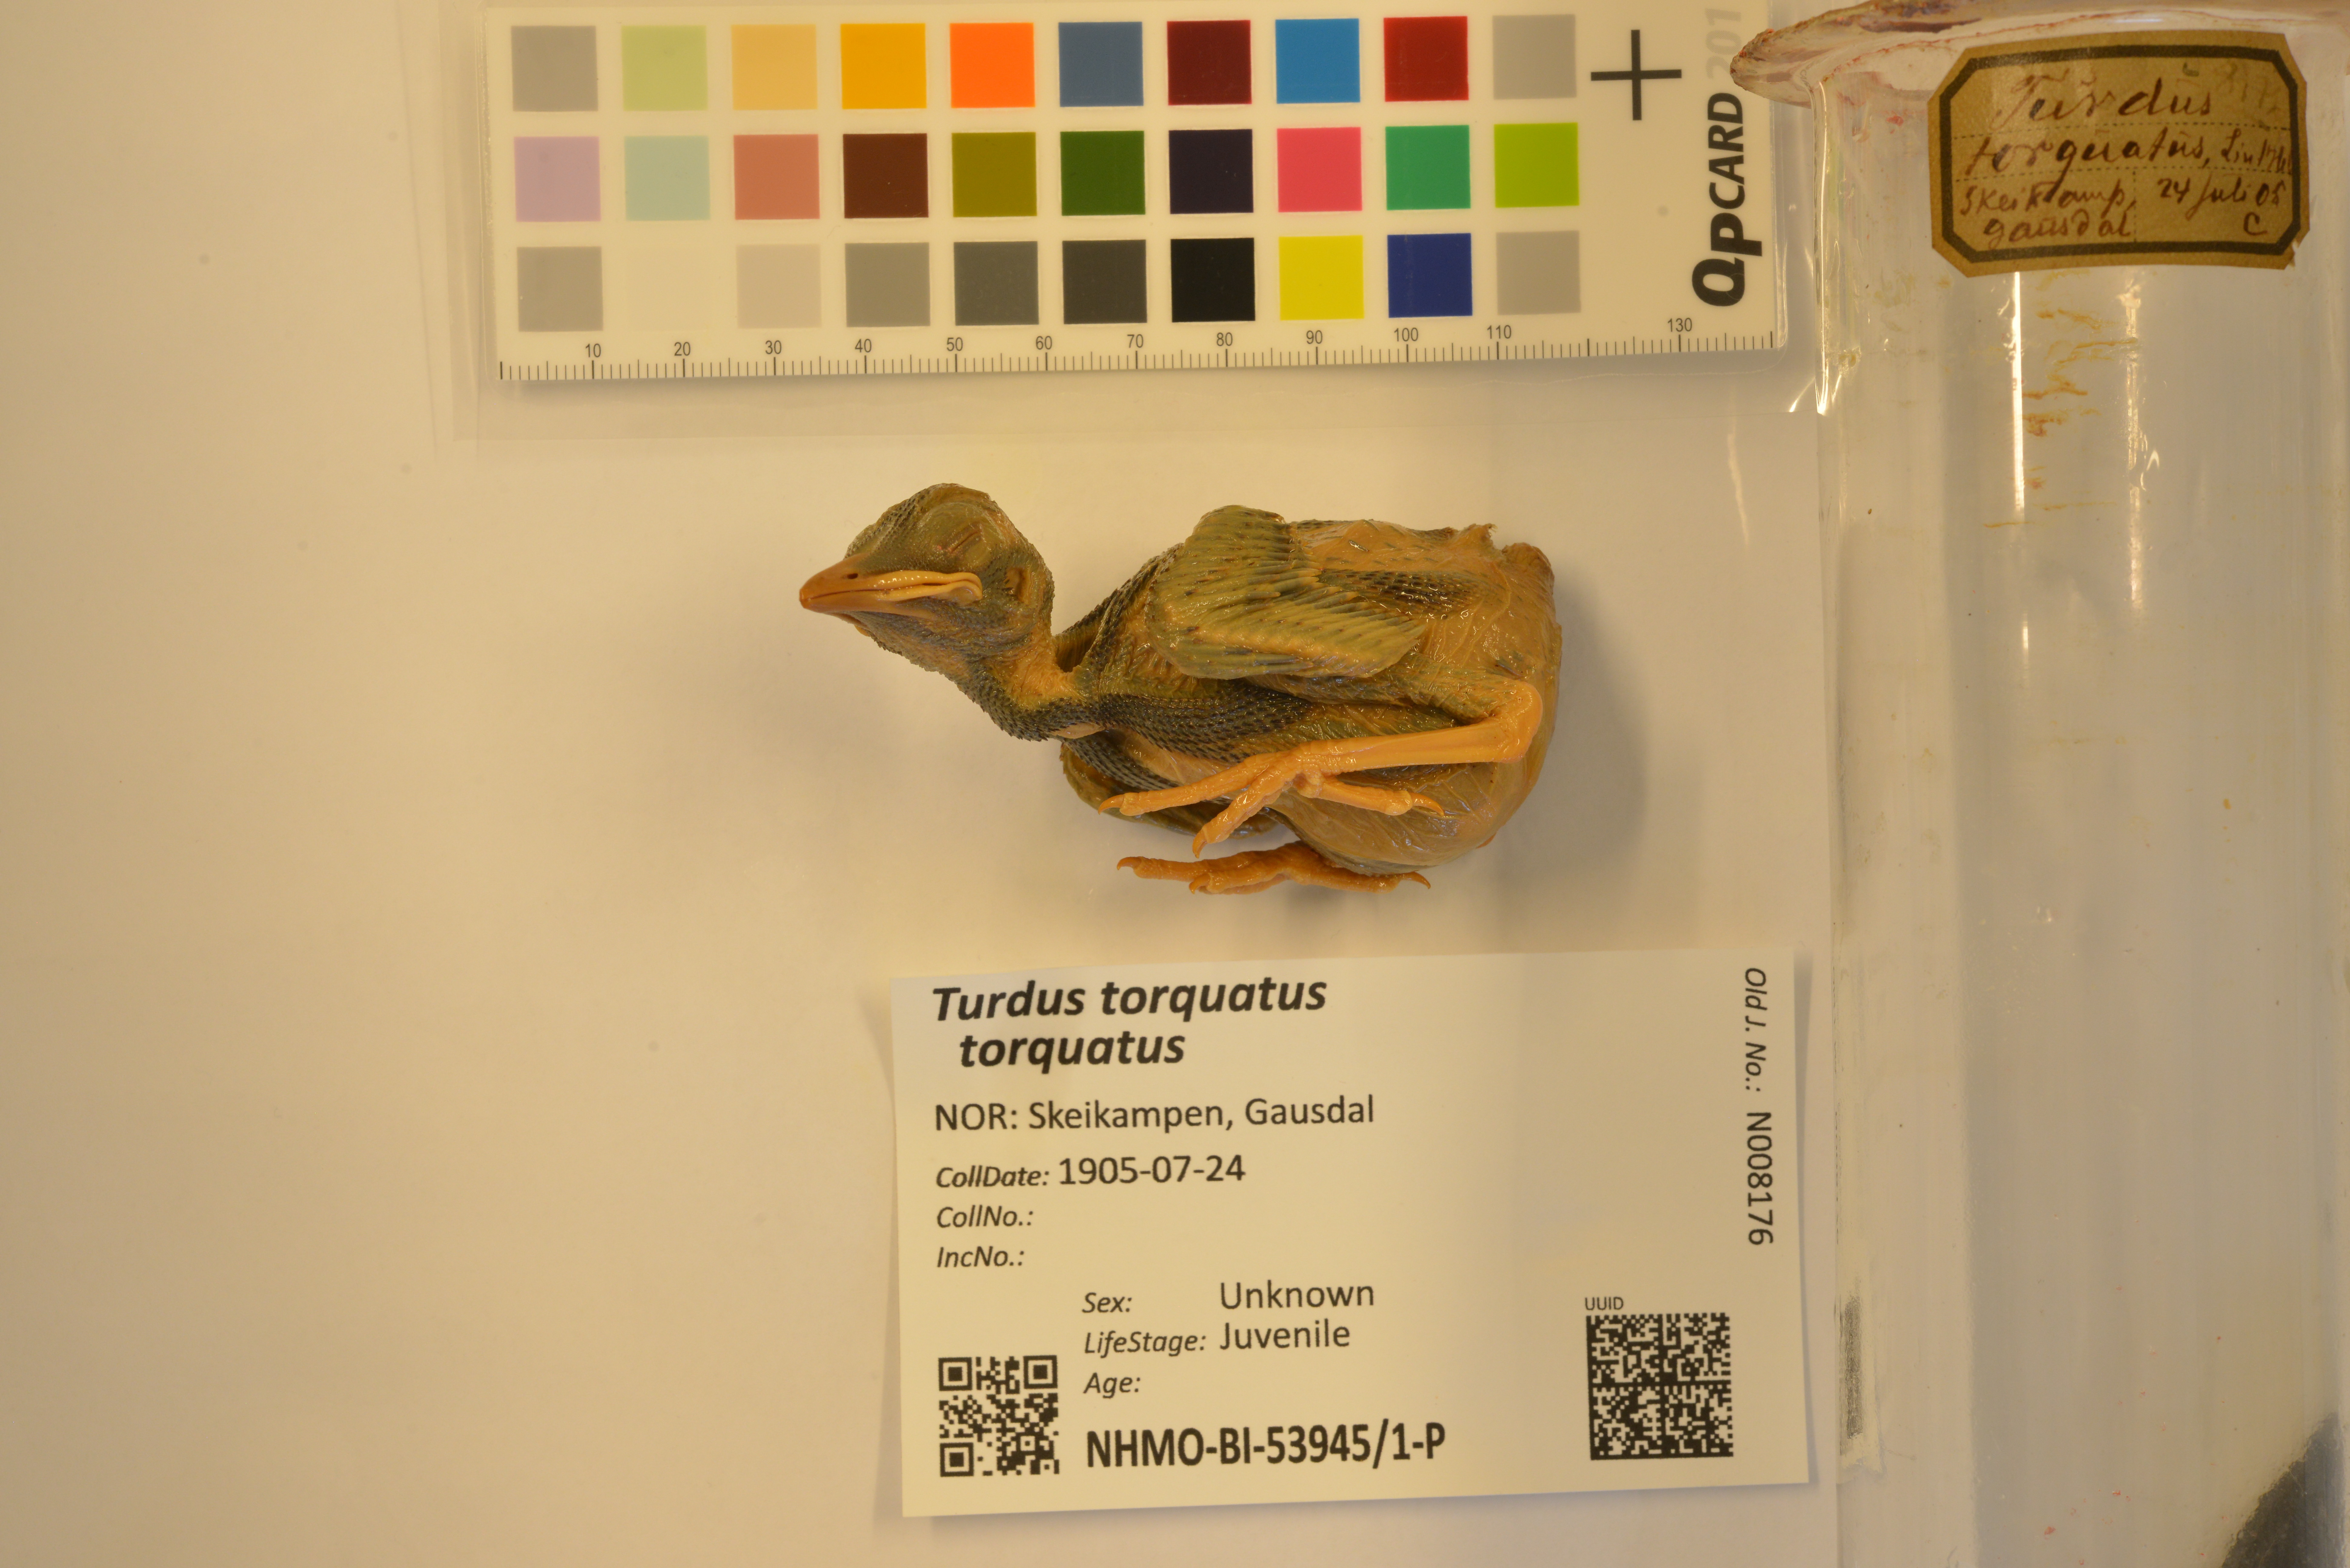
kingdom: Animalia
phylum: Chordata
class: Aves
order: Passeriformes
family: Turdidae
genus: Turdus
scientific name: Turdus torquatus
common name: Ring ouzel
